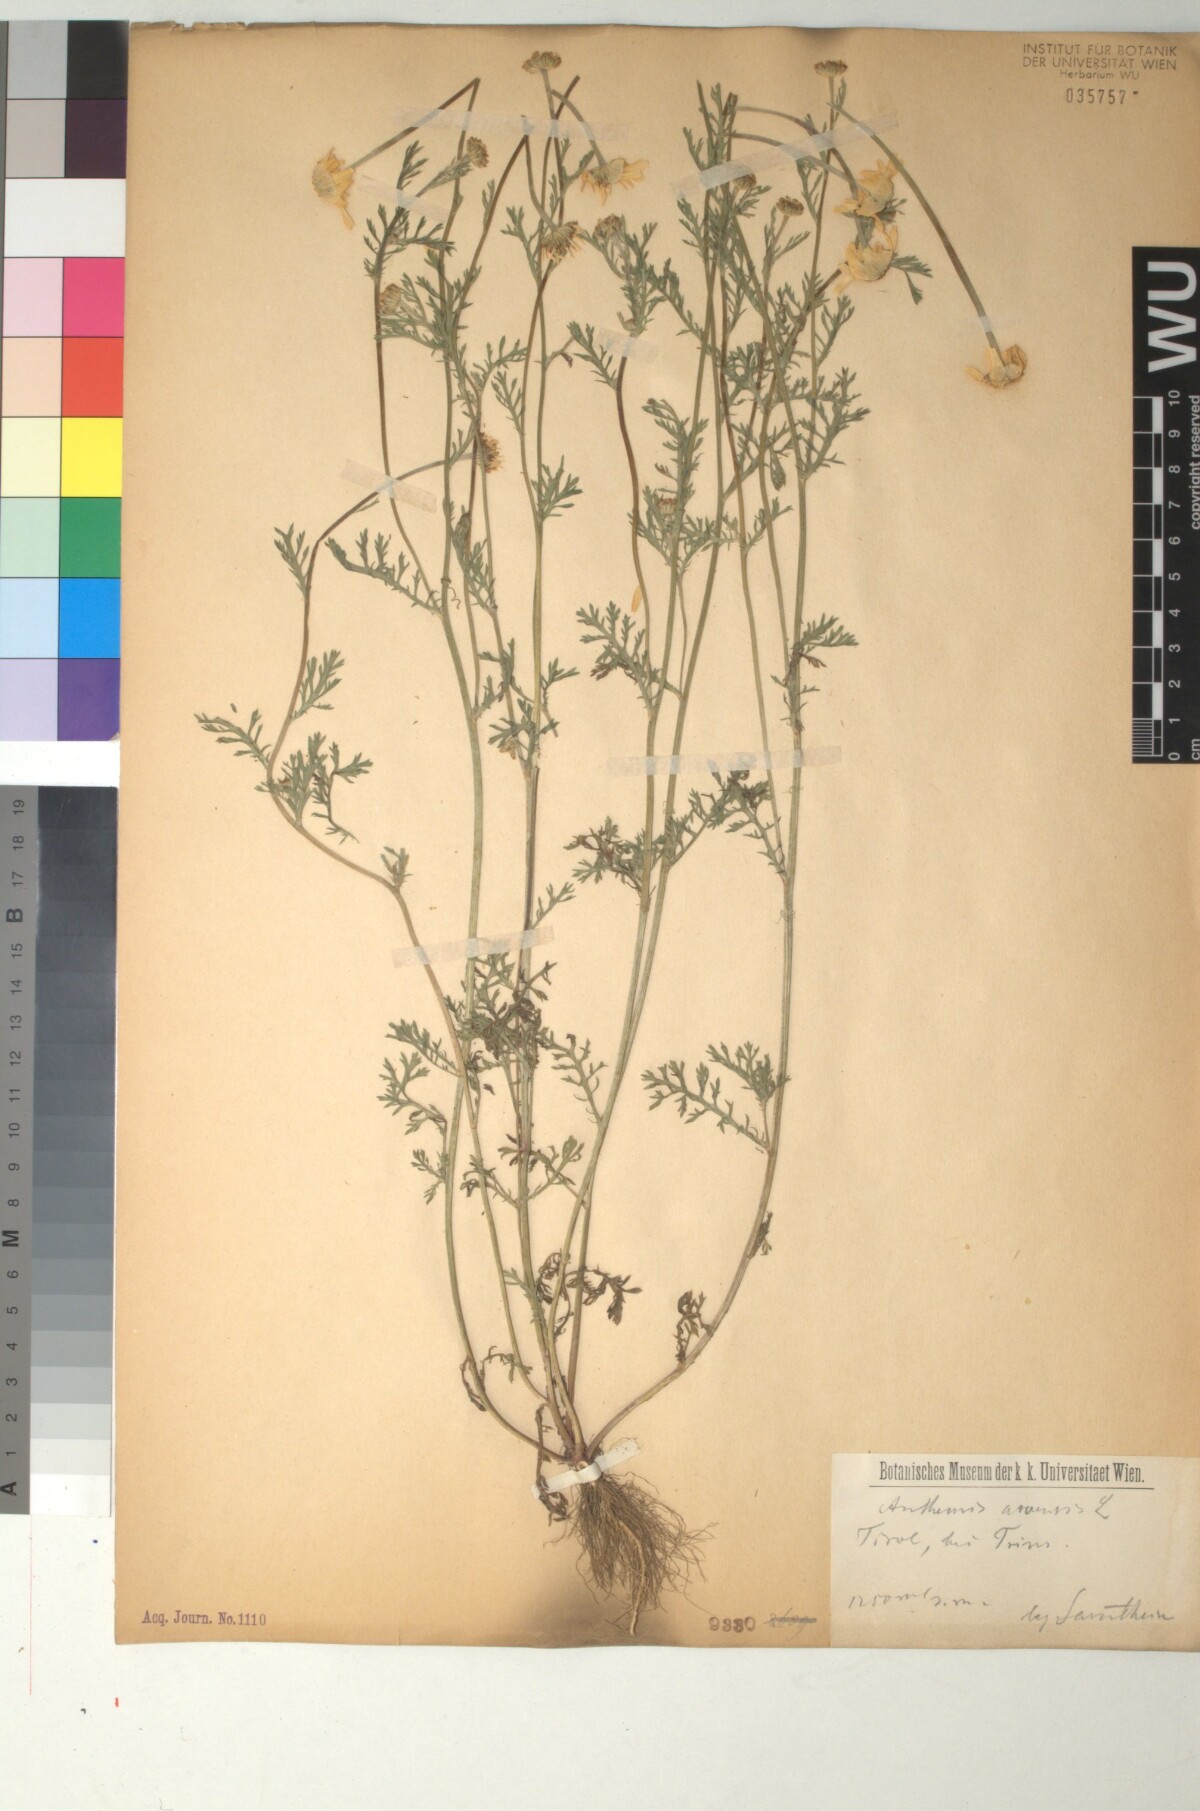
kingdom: Plantae
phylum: Tracheophyta
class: Magnoliopsida
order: Asterales
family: Asteraceae
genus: Anthemis
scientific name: Anthemis arvensis
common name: Corn chamomile
